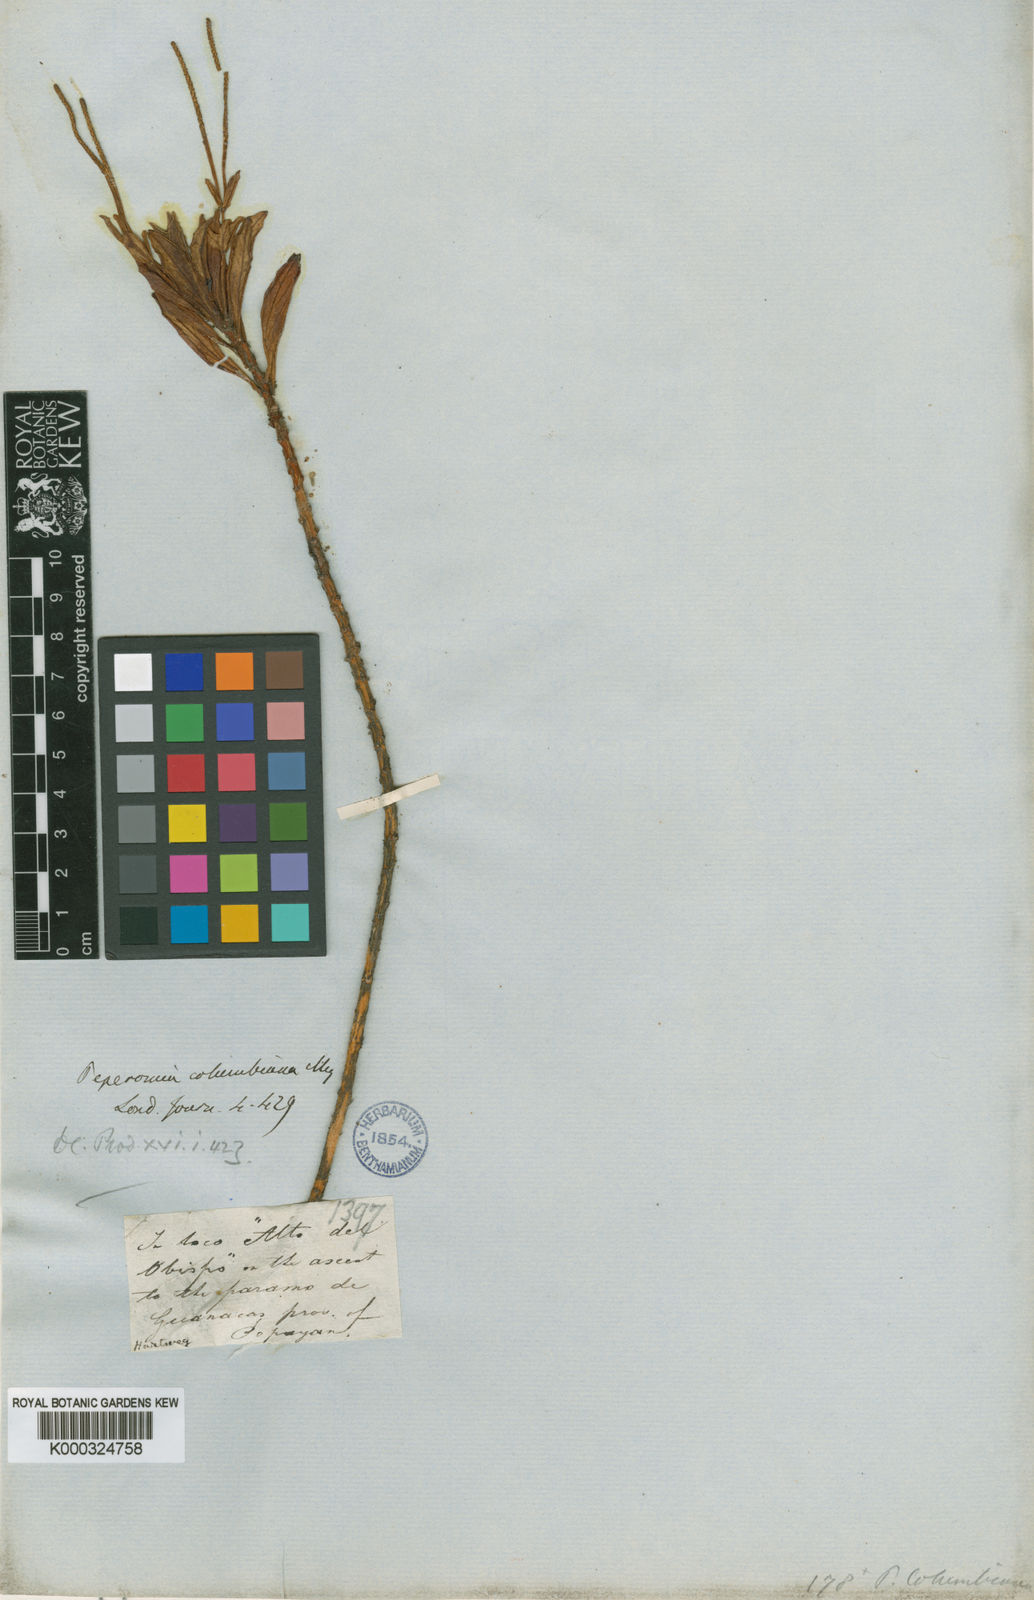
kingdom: Plantae
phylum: Tracheophyta
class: Magnoliopsida
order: Piperales
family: Piperaceae
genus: Peperomia
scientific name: Peperomia saligna
